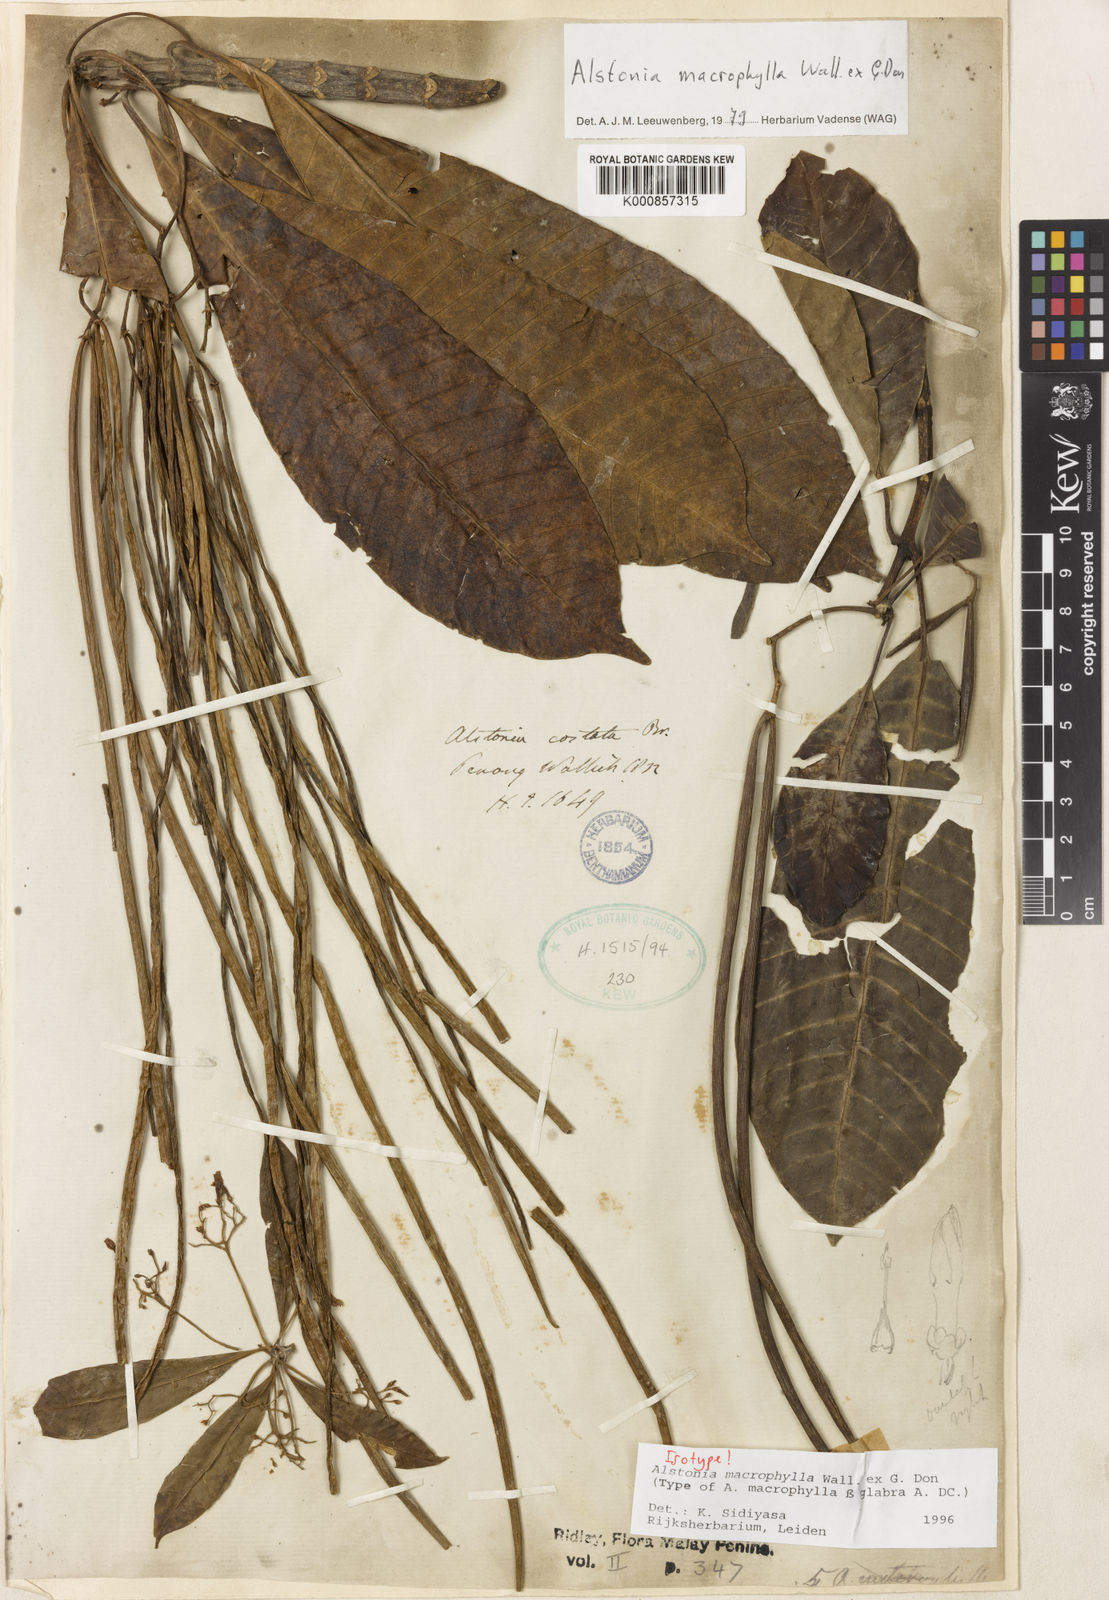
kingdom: Plantae
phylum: Tracheophyta
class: Magnoliopsida
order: Gentianales
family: Apocynaceae
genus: Alstonia
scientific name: Alstonia macrophylla
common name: Deviltree
